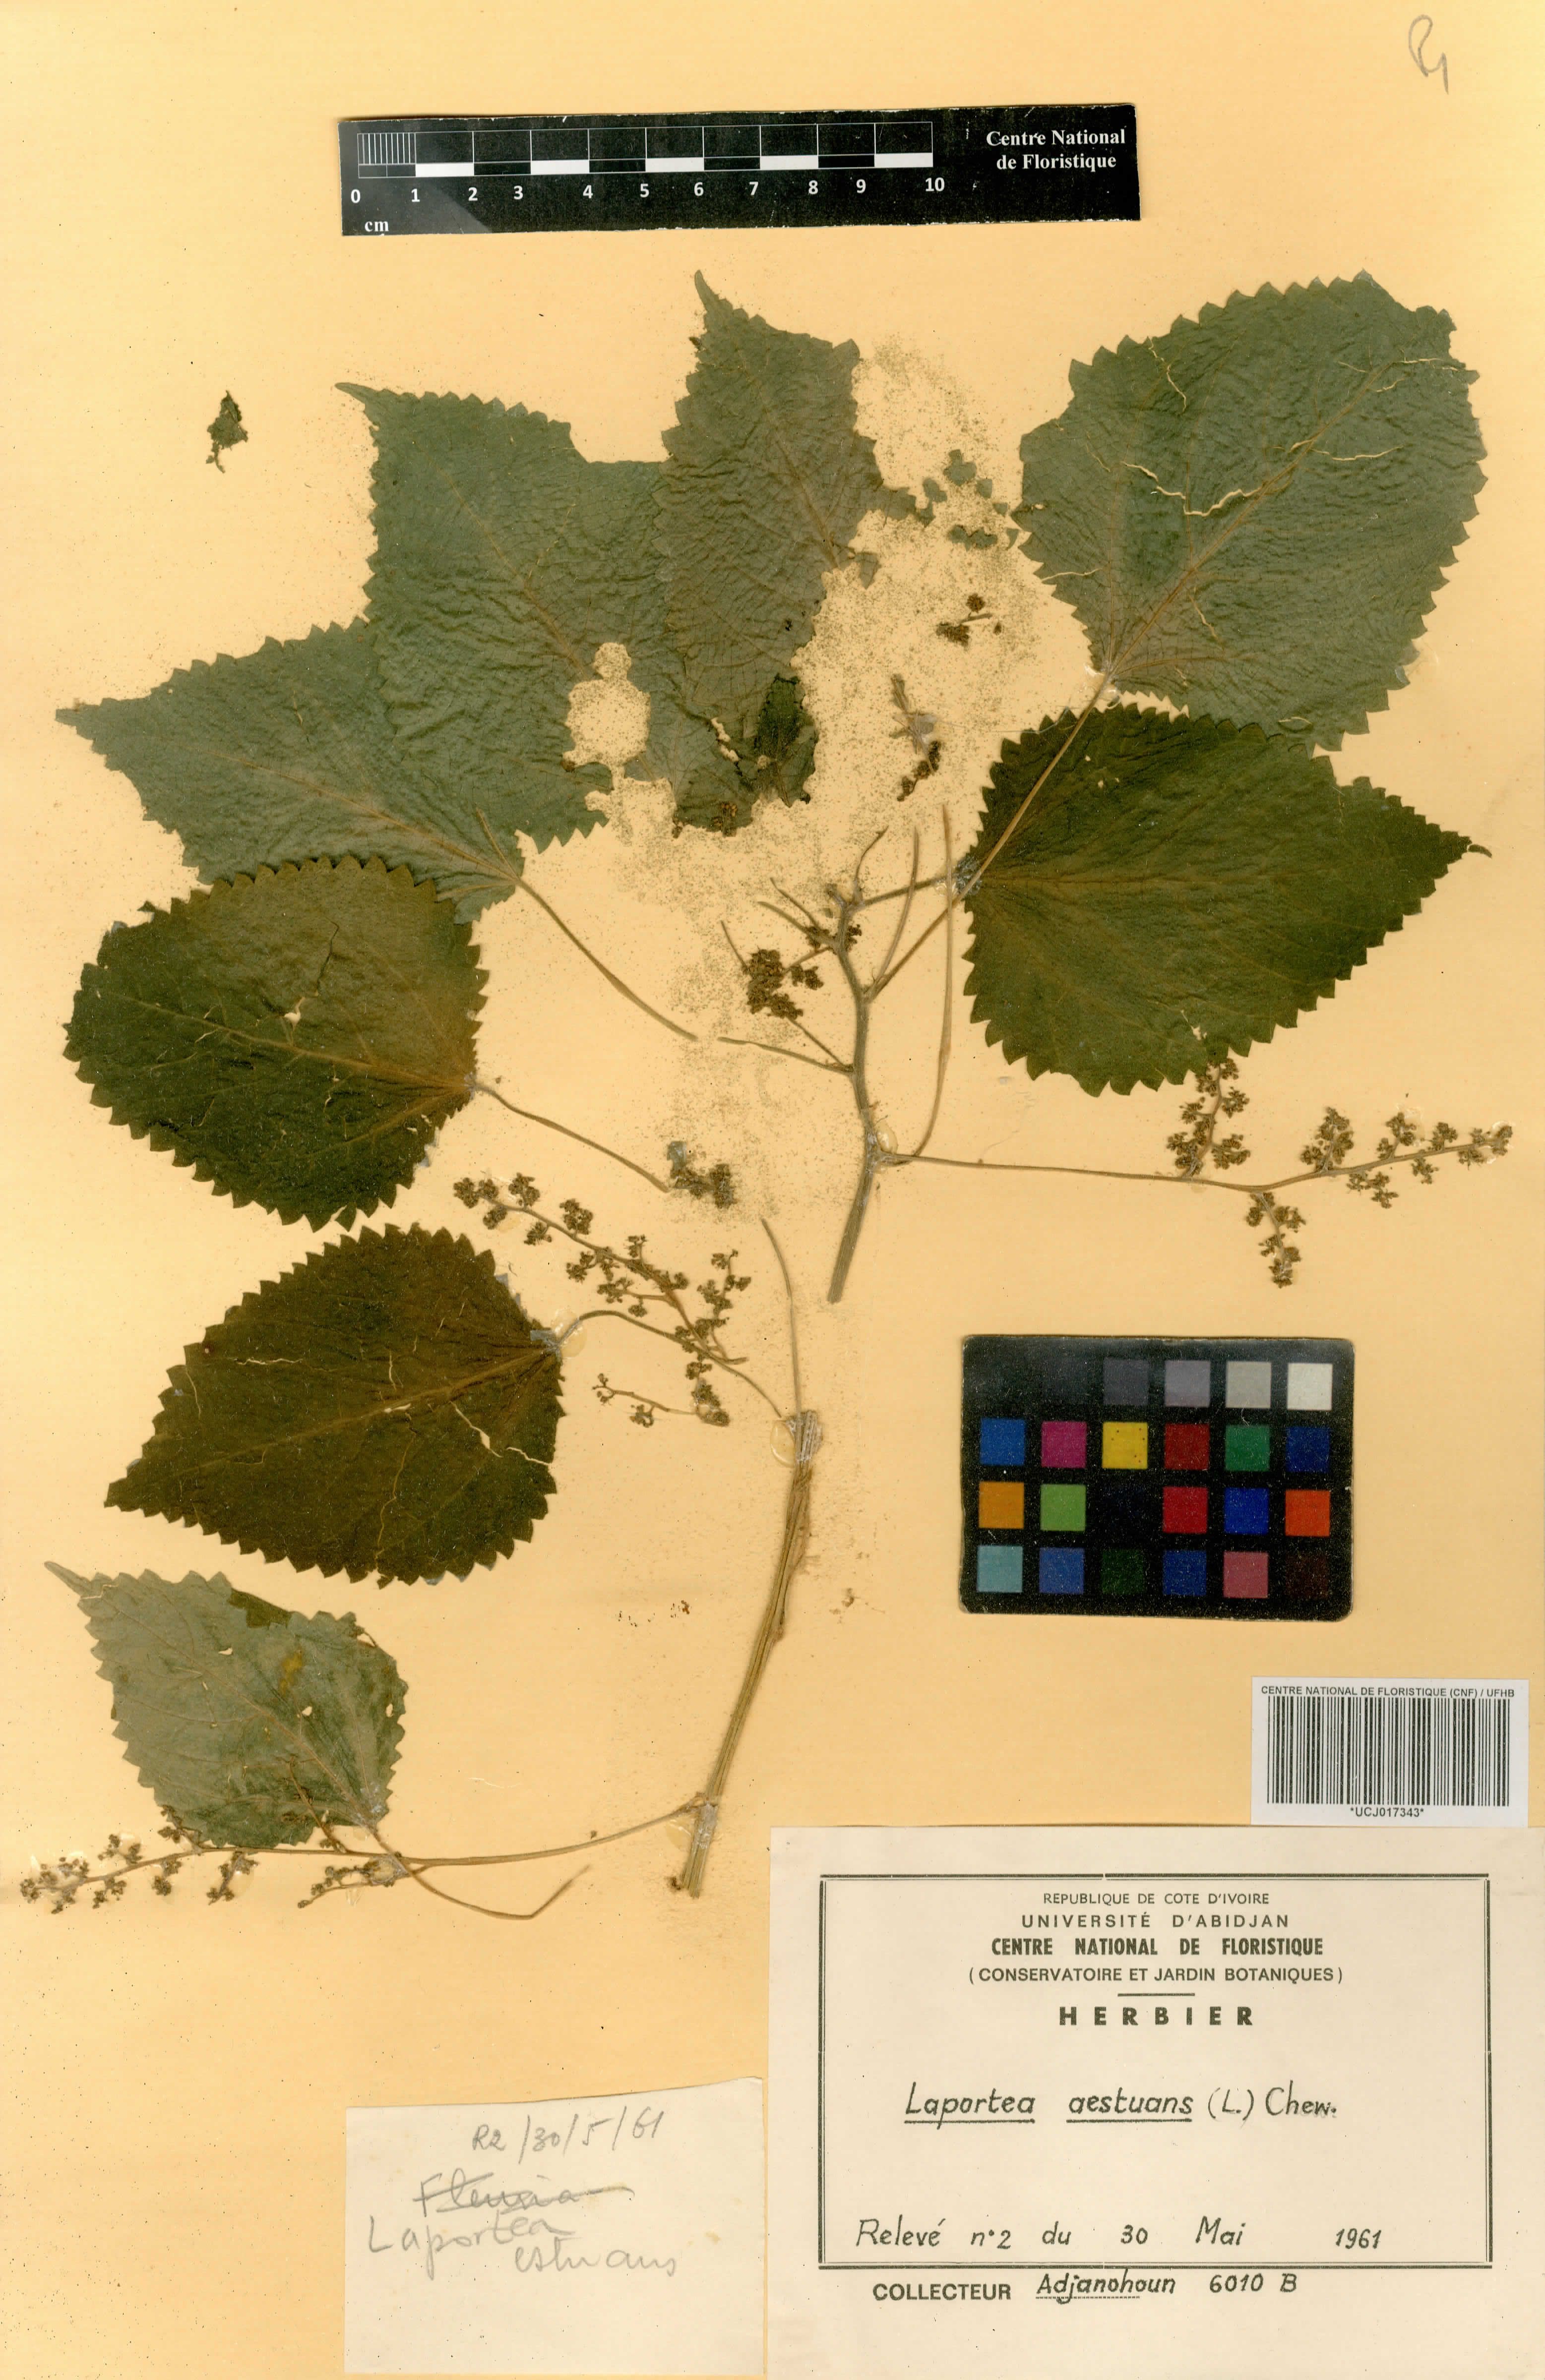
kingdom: Plantae
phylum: Tracheophyta
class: Magnoliopsida
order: Rosales
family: Urticaceae
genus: Laportea
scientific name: Laportea aestuans
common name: West indian woodnettle
